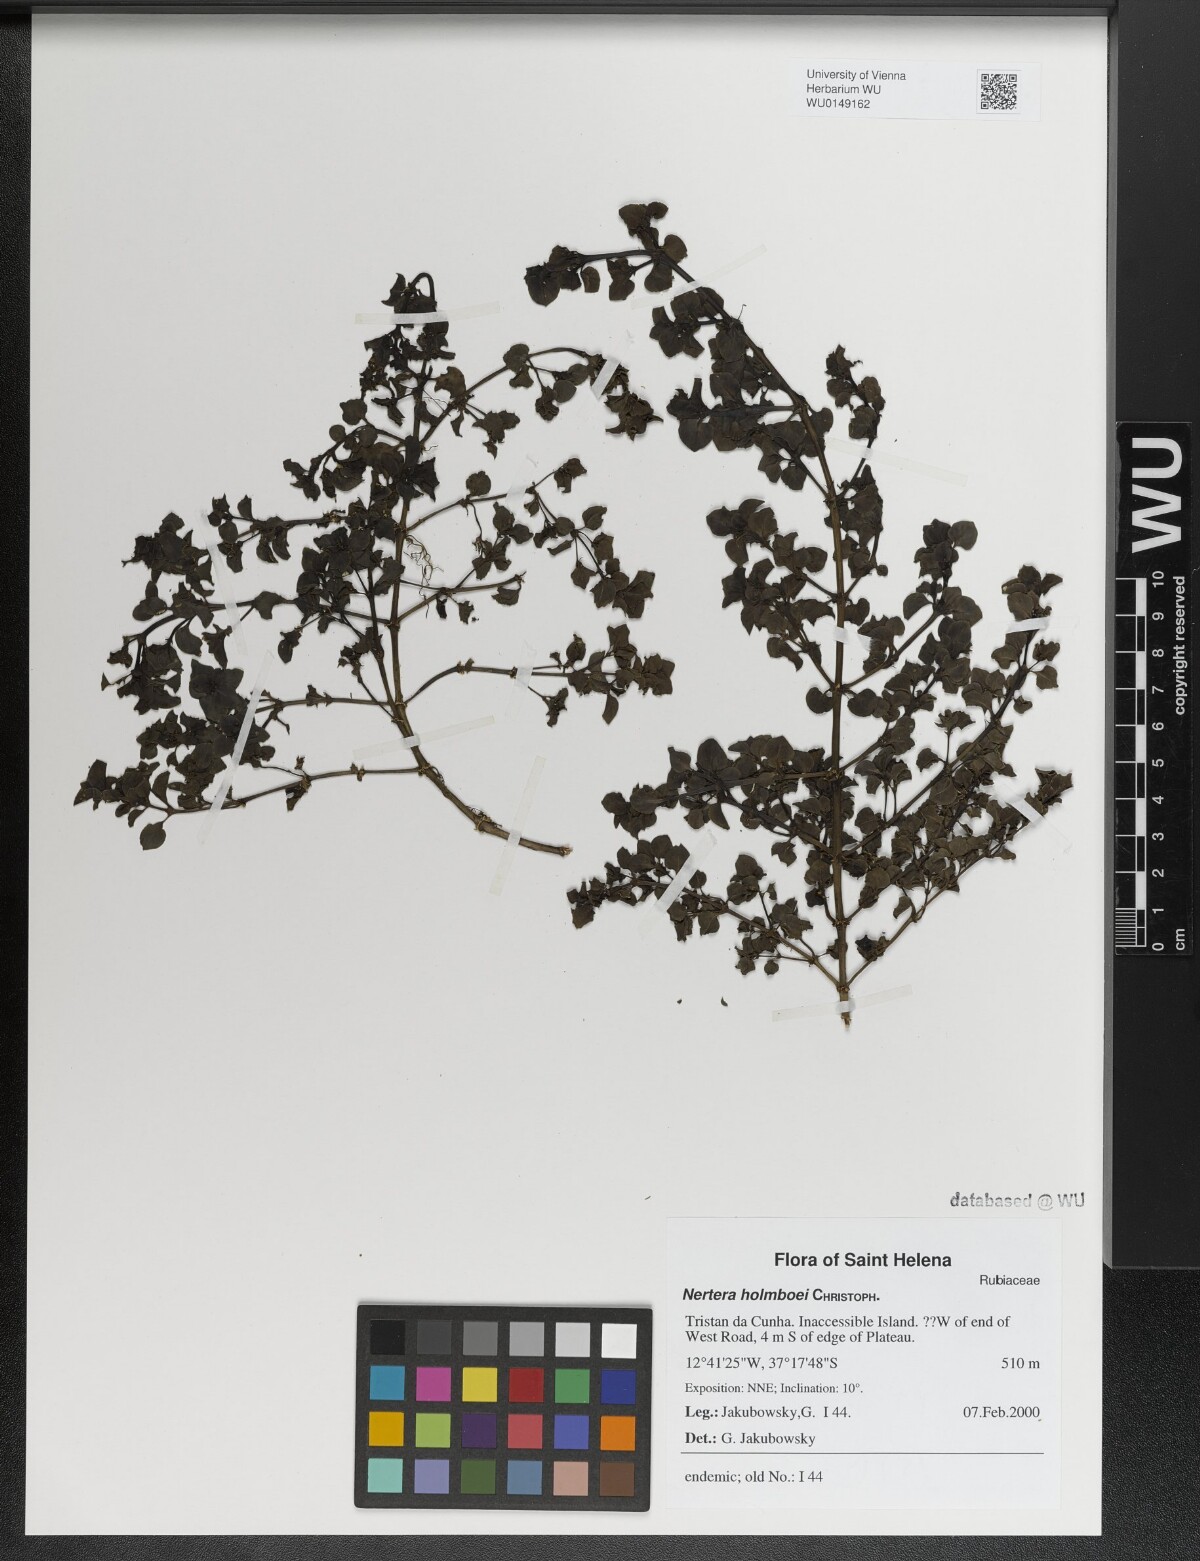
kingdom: Plantae
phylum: Tracheophyta
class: Magnoliopsida
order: Gentianales
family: Rubiaceae
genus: Nertera
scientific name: Nertera holmboei
